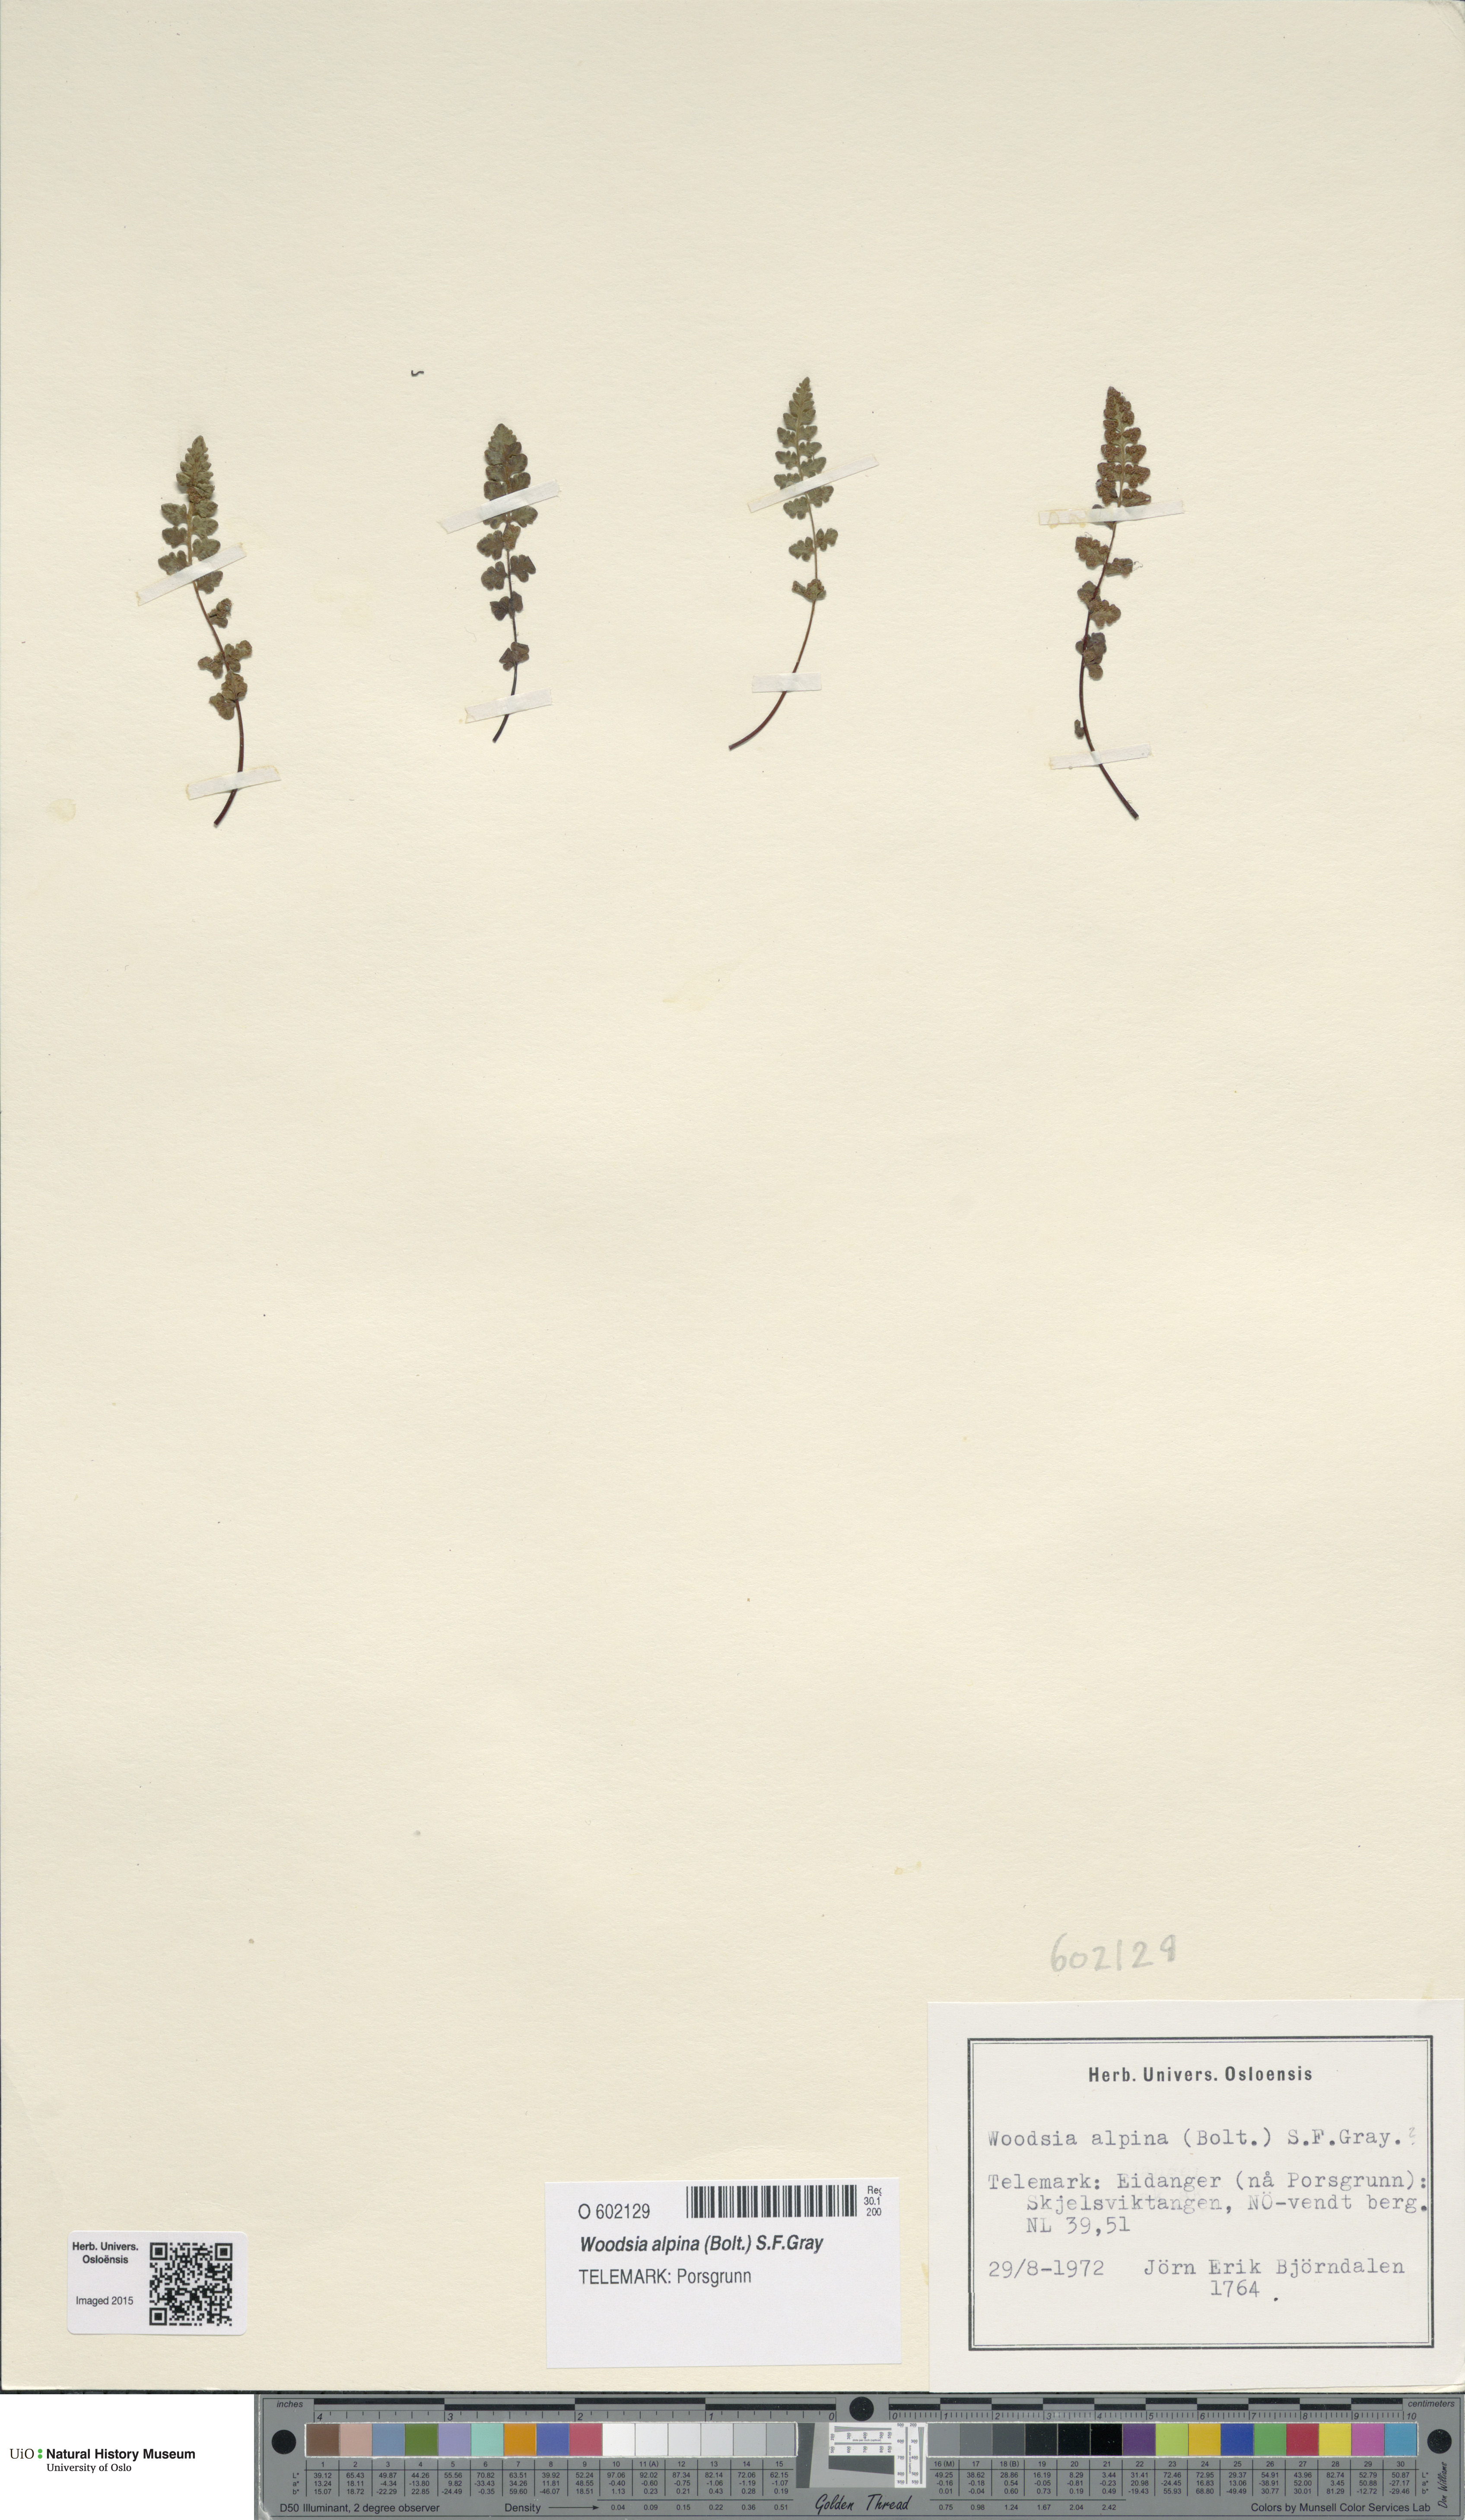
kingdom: Plantae
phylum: Tracheophyta
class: Polypodiopsida
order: Polypodiales
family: Woodsiaceae
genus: Woodsia
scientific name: Woodsia alpina
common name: Alpine woodsia
